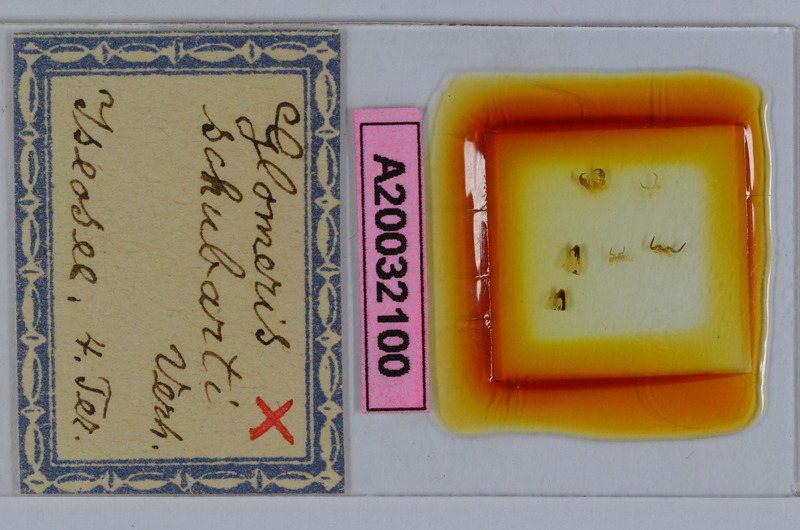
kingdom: Animalia
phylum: Arthropoda
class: Diplopoda
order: Glomerida
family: Glomeridae
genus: Glomeris
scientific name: Glomeris schubarti
